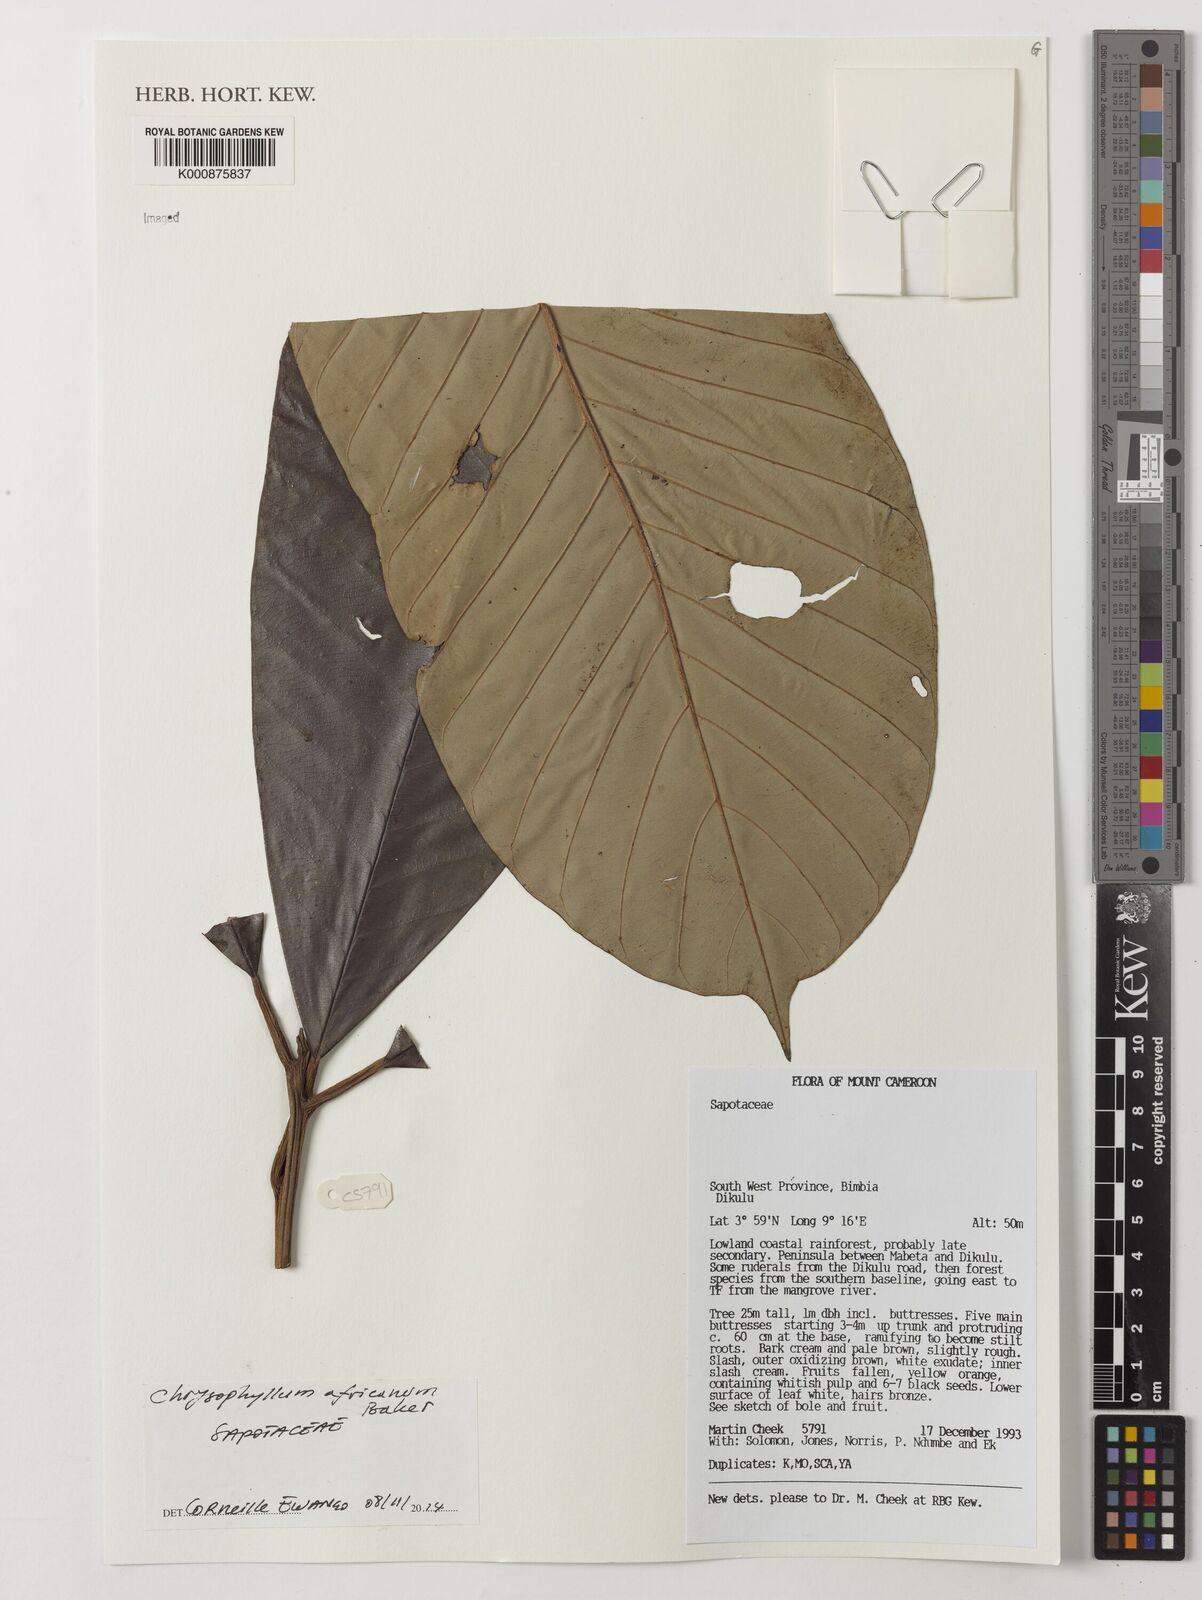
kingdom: Plantae
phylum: Tracheophyta
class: Magnoliopsida
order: Ericales
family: Sapotaceae
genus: Gambeya
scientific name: Gambeya africana
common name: African star apple
